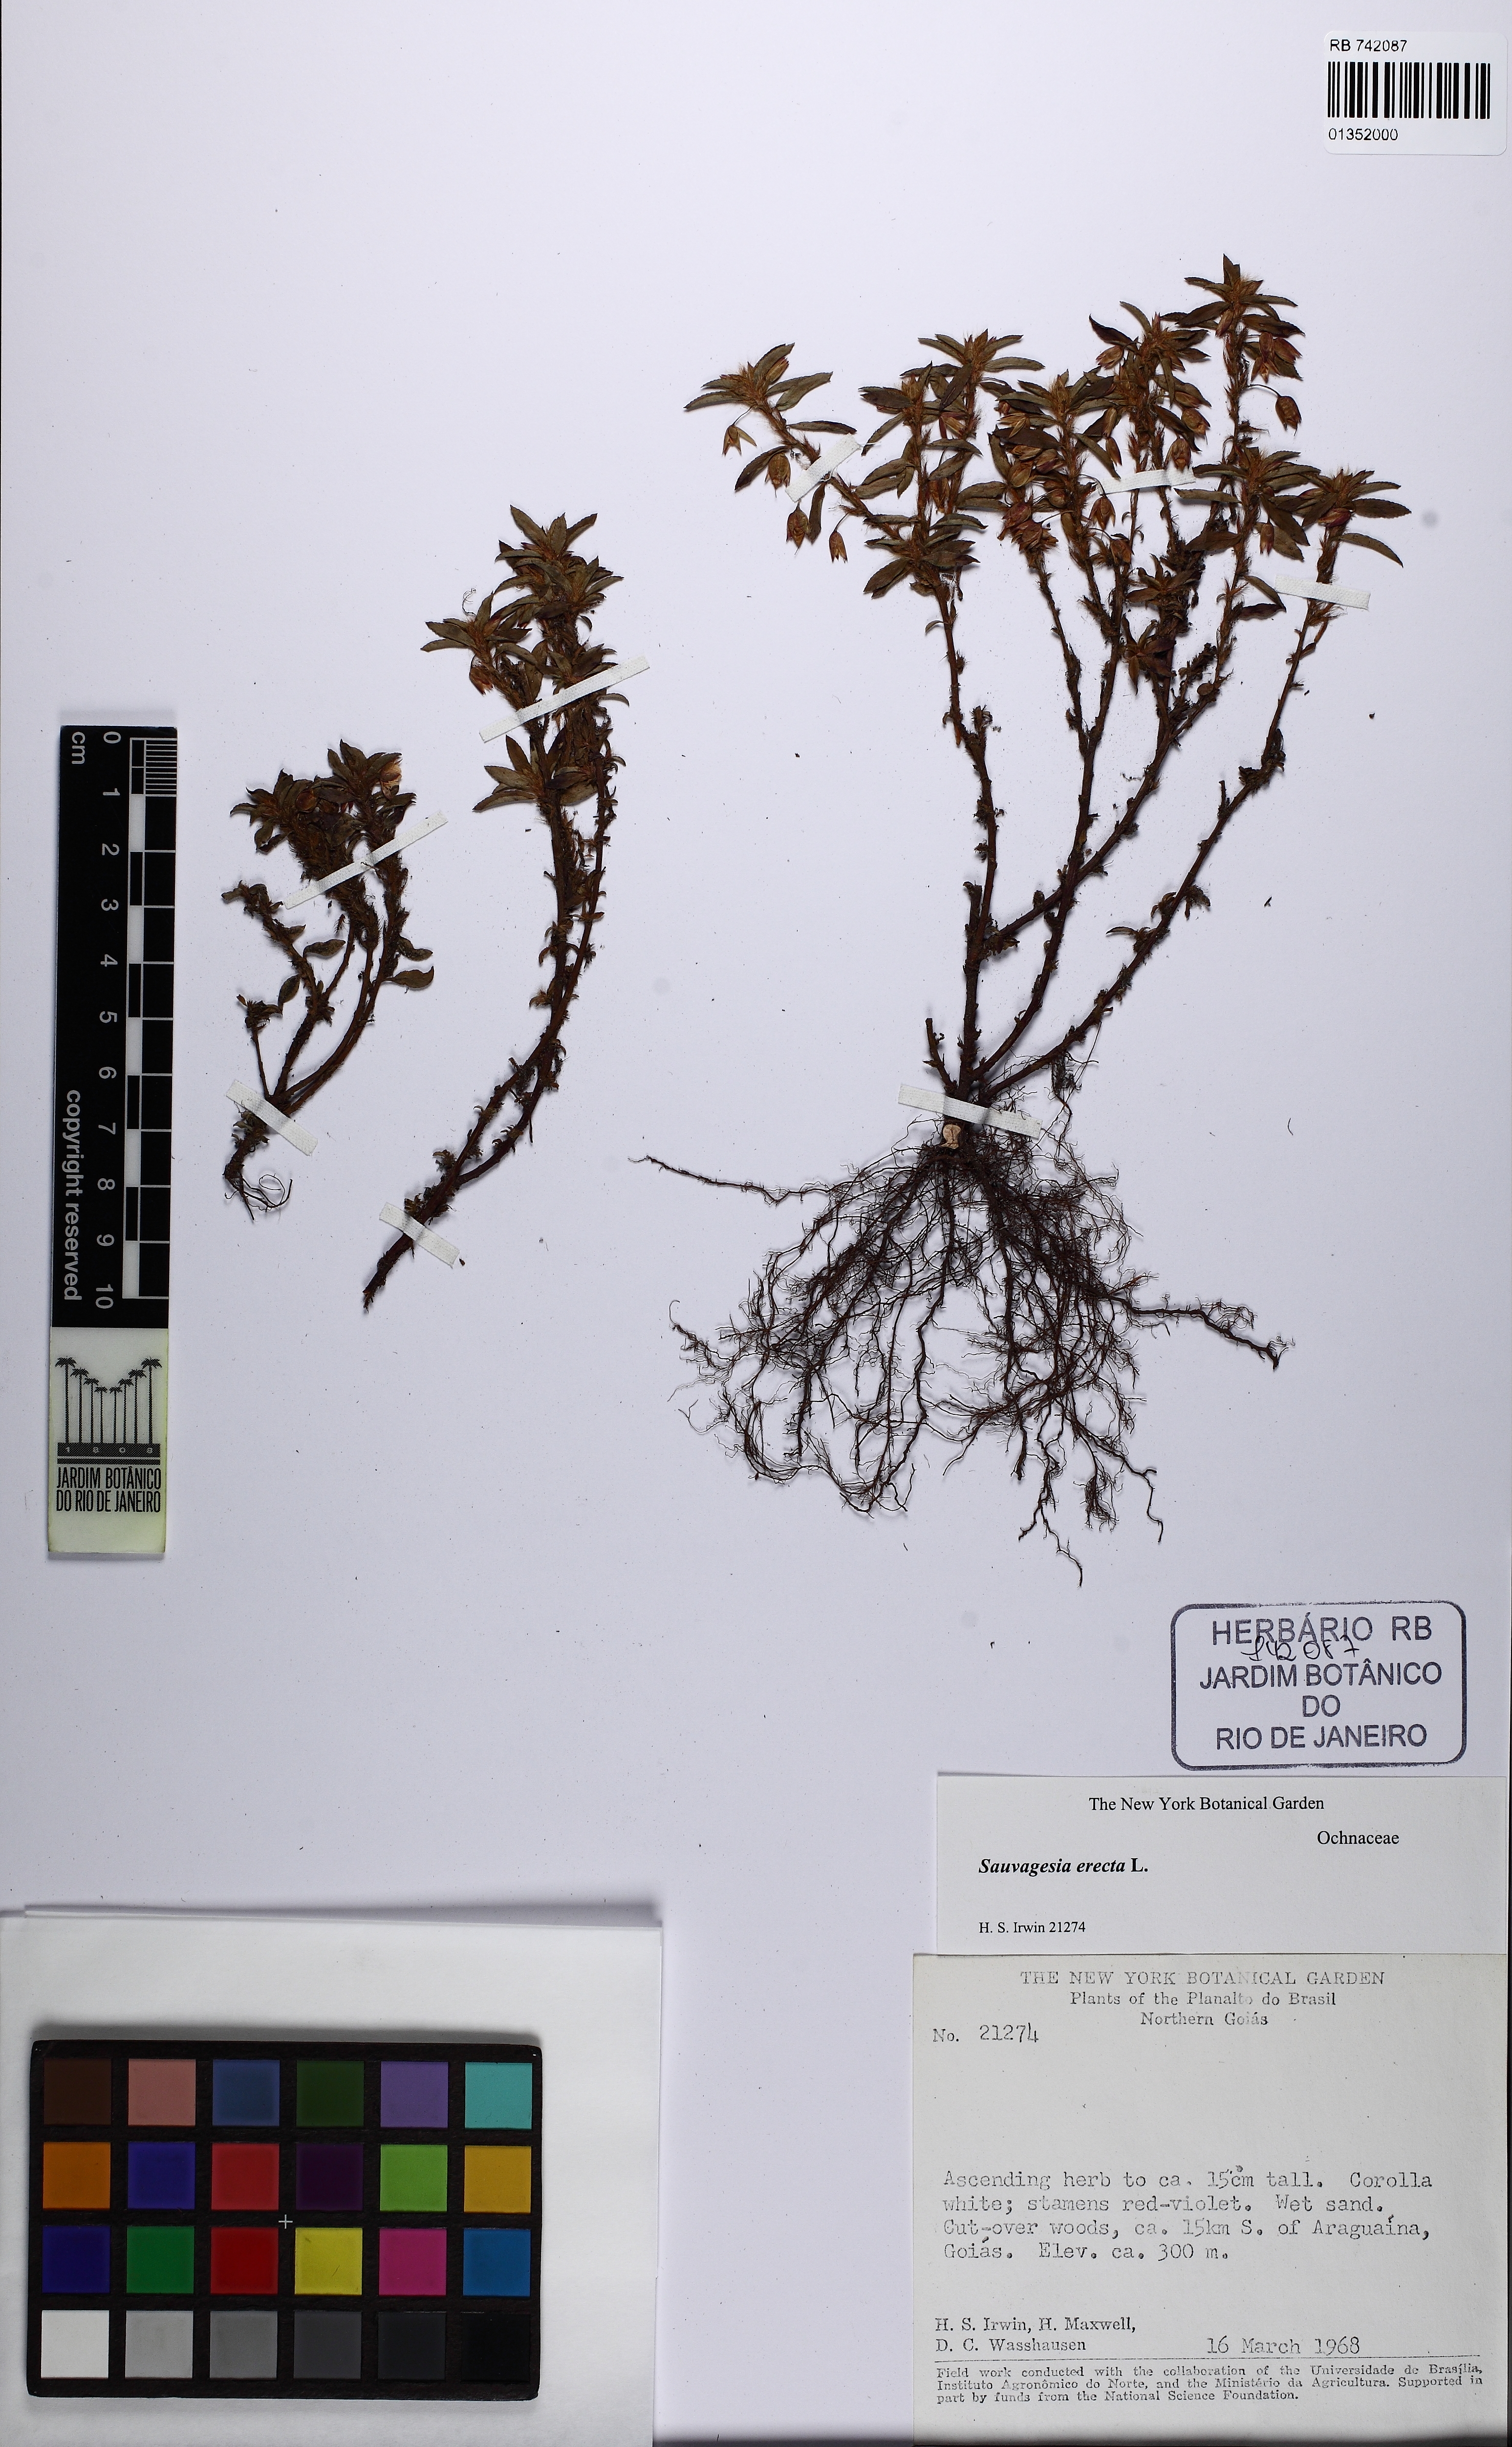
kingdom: Plantae
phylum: Tracheophyta
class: Magnoliopsida
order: Malpighiales
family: Ochnaceae
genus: Sauvagesia
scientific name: Sauvagesia erecta
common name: Creole tea
